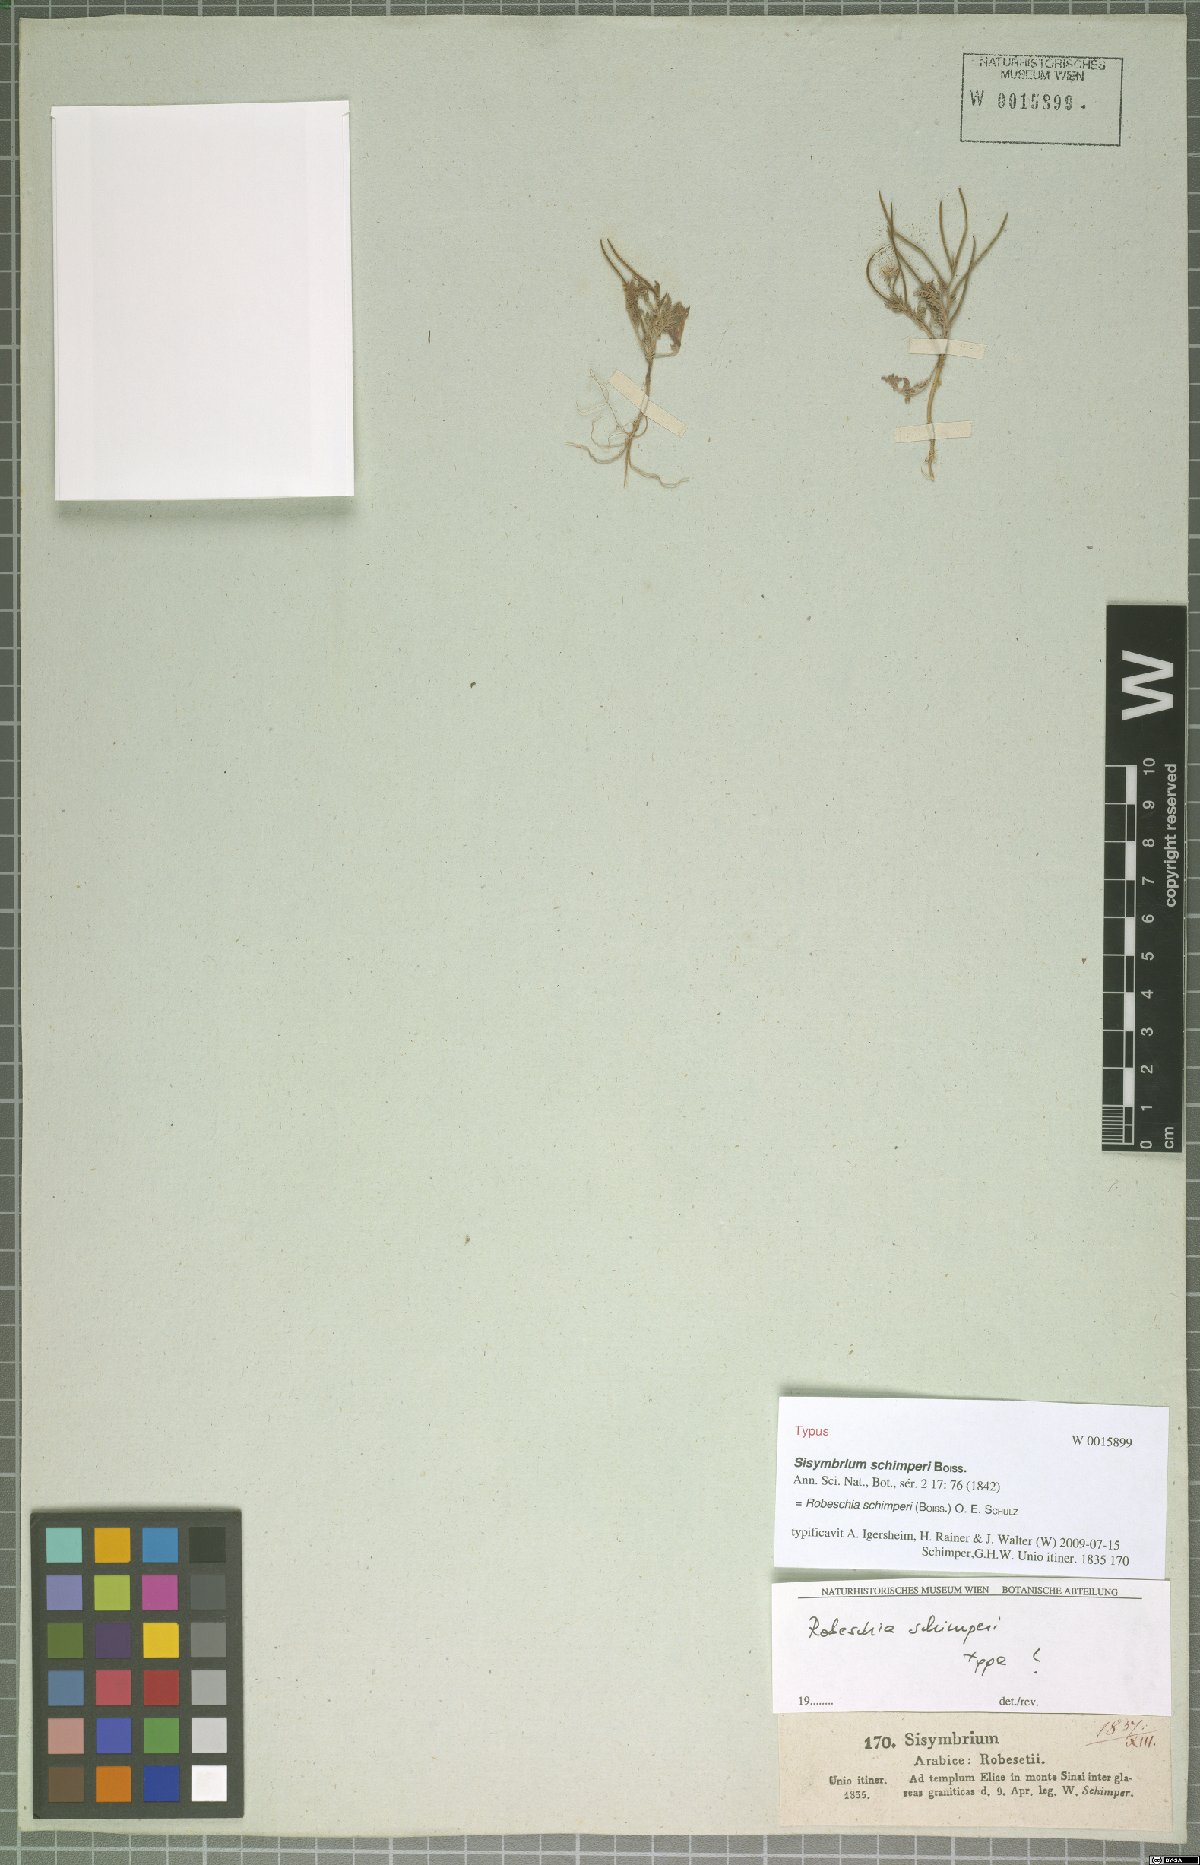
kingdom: Plantae
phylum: Tracheophyta
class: Magnoliopsida
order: Brassicales
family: Brassicaceae
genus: Robeschia
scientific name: Robeschia schimperi
